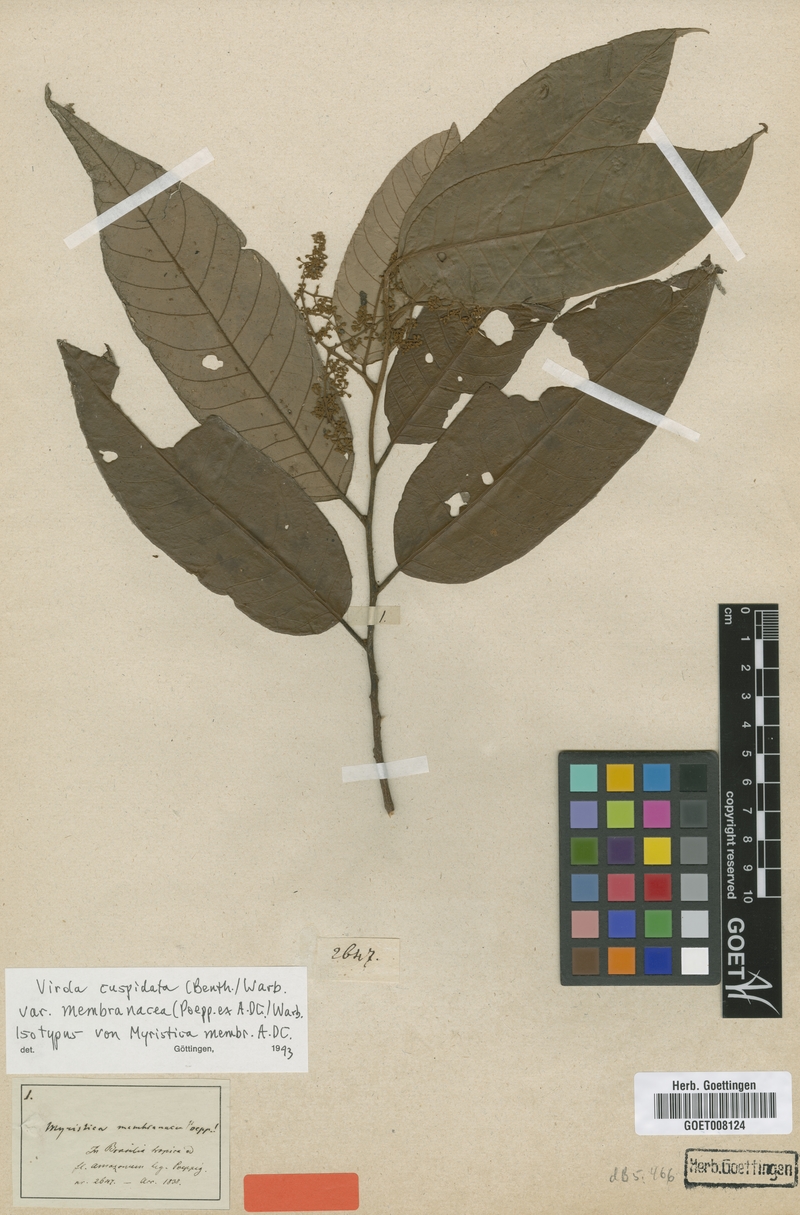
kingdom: Plantae
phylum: Tracheophyta
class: Magnoliopsida
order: Magnoliales
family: Myristicaceae
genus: Virola
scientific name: Virola elongata
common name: Sacred virola
